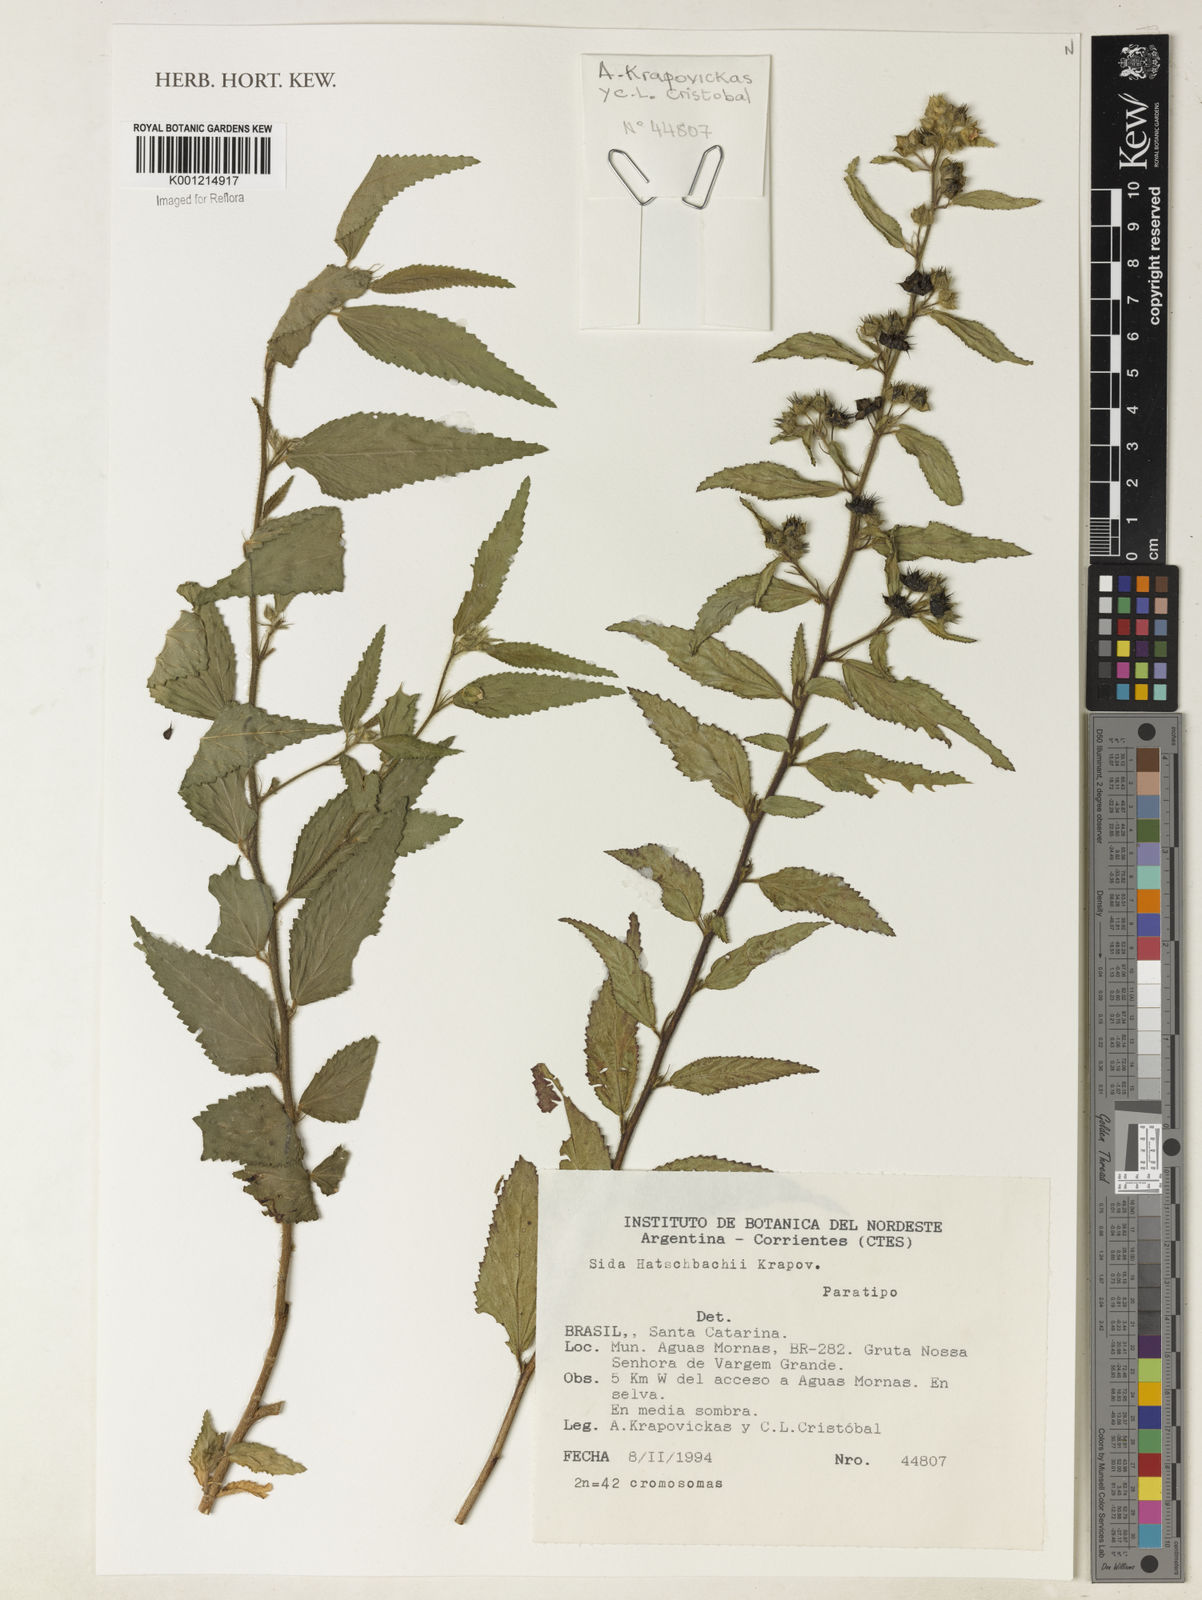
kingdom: Plantae
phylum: Tracheophyta
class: Magnoliopsida
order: Malvales
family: Malvaceae
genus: Sida
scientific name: Sida hatschbachii
